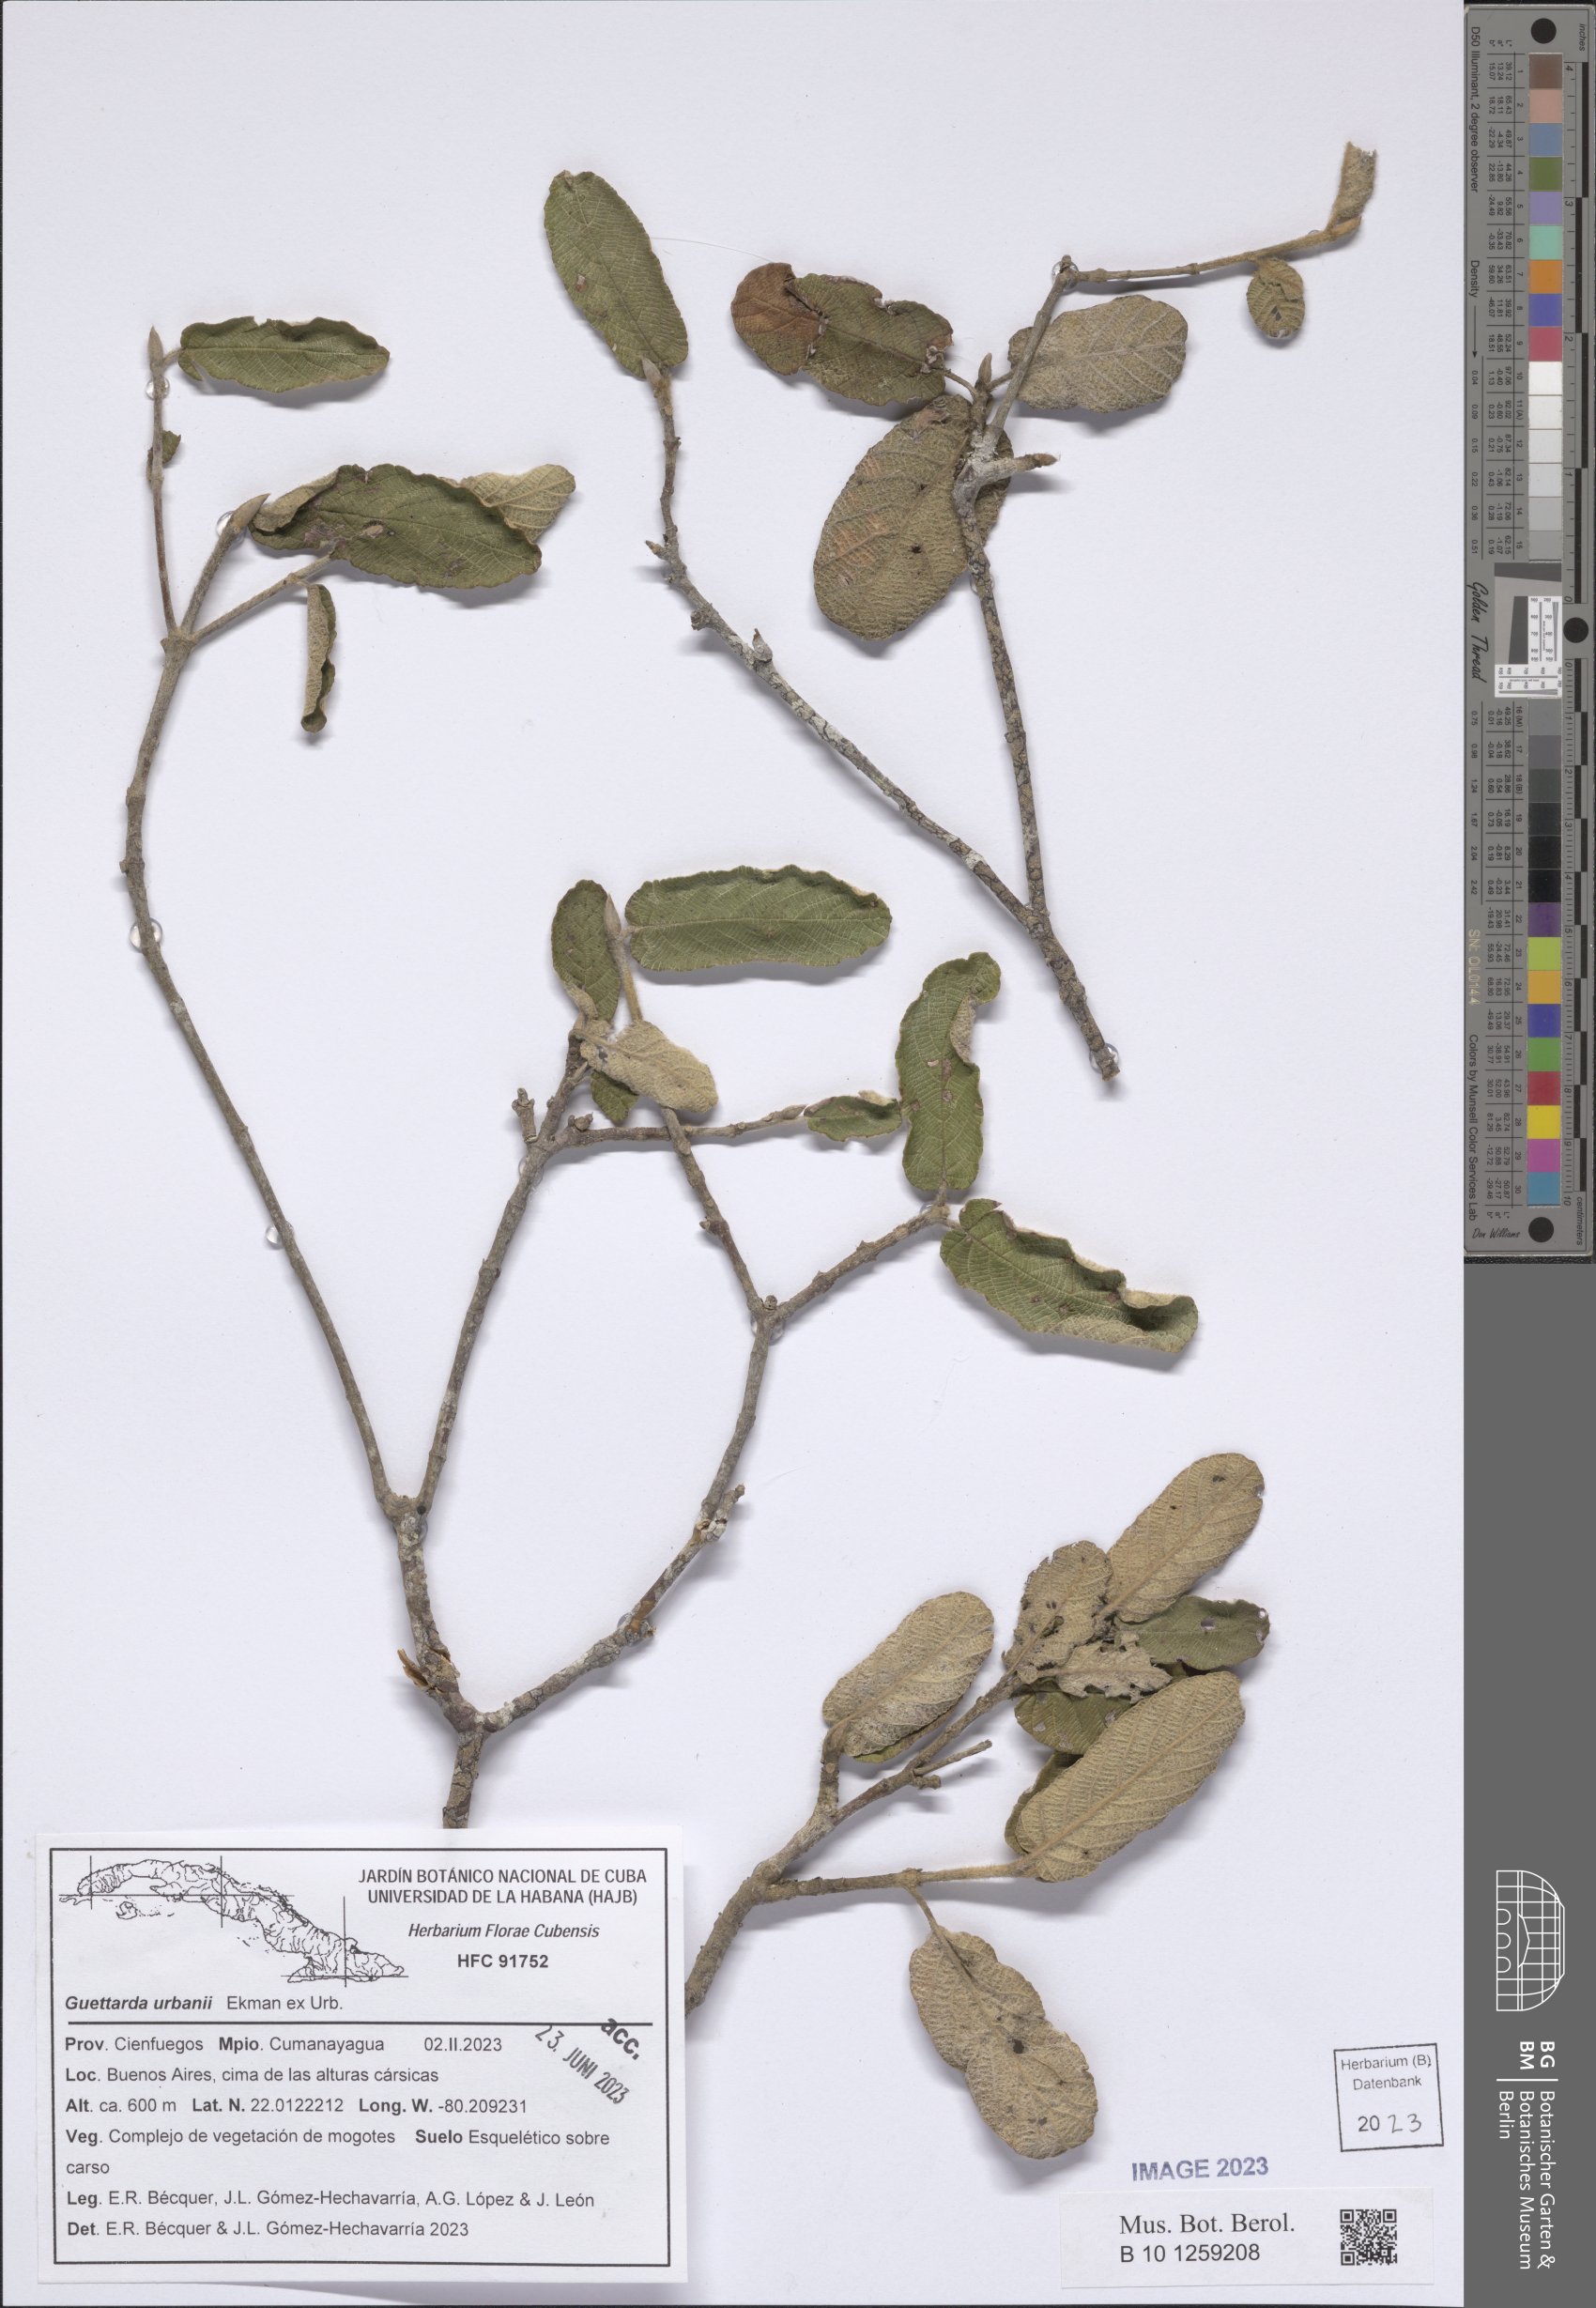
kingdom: Plantae
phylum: Tracheophyta
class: Magnoliopsida
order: Gentianales
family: Rubiaceae
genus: Guettarda
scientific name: Guettarda urbani
